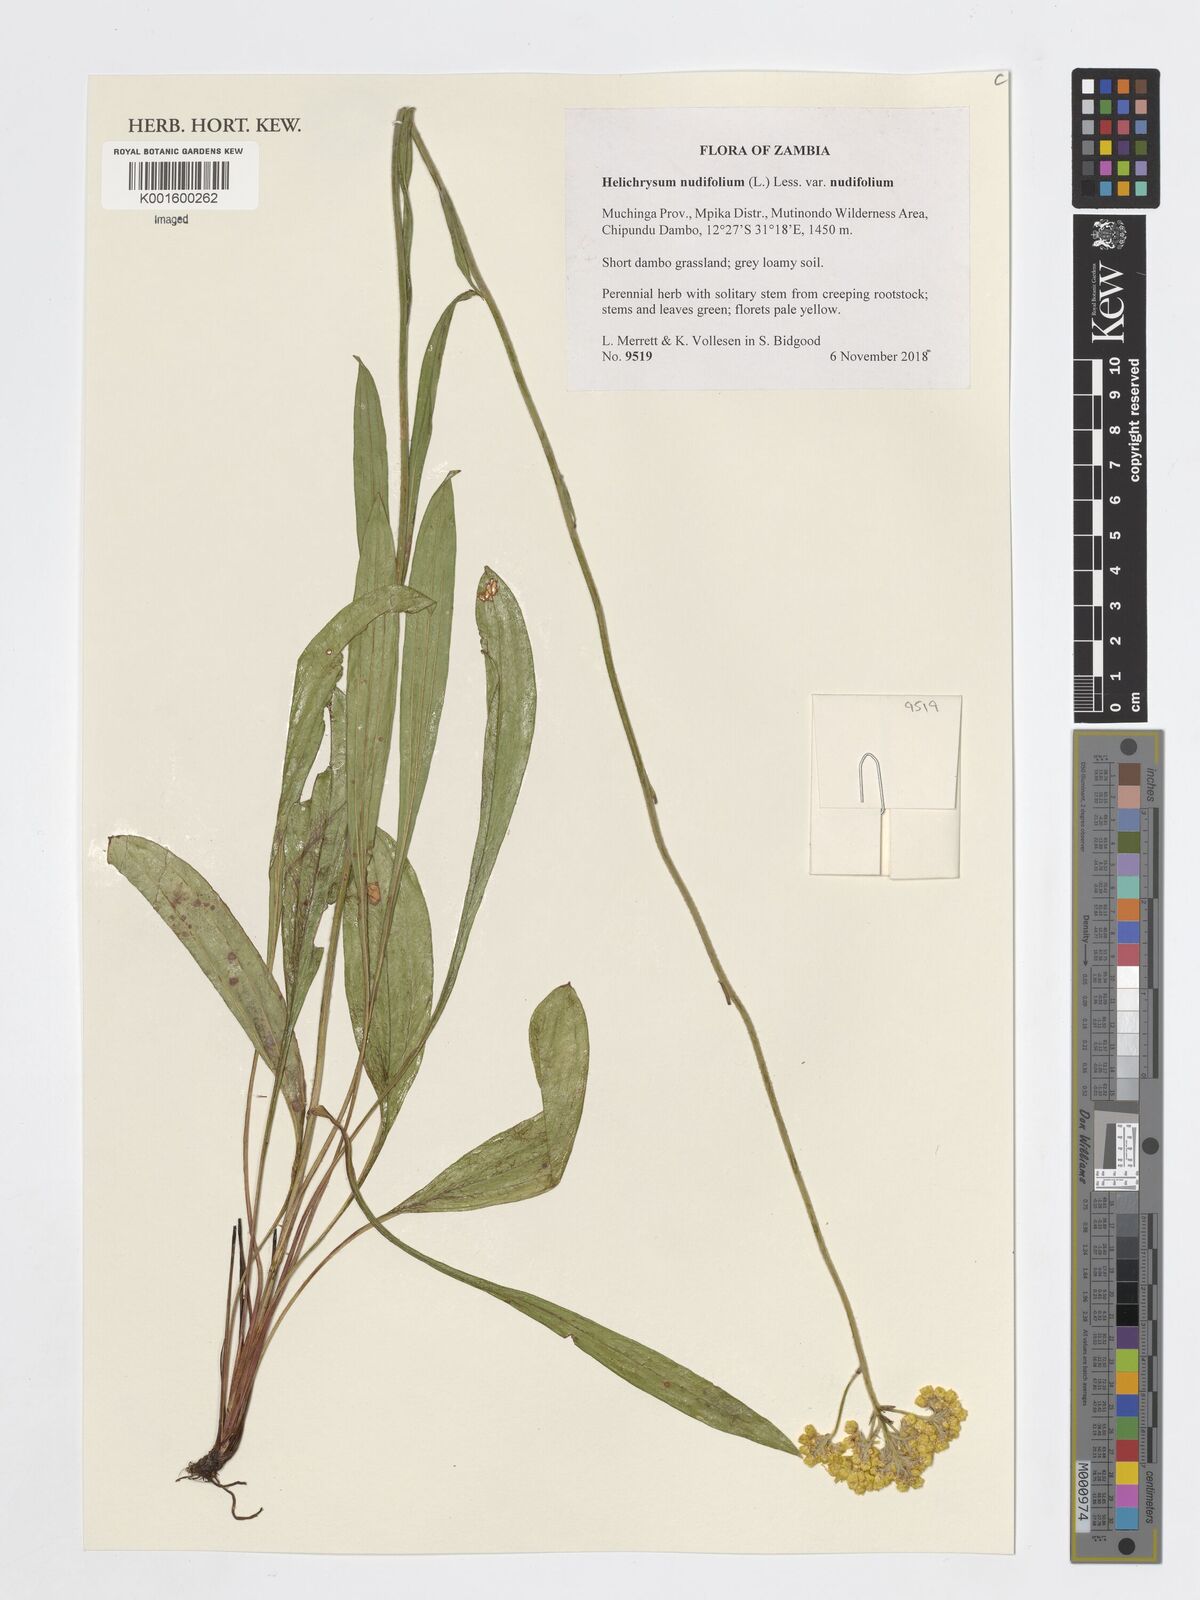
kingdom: Plantae
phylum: Tracheophyta
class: Magnoliopsida
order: Asterales
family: Asteraceae
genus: Helichrysum
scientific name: Helichrysum nudifolium
